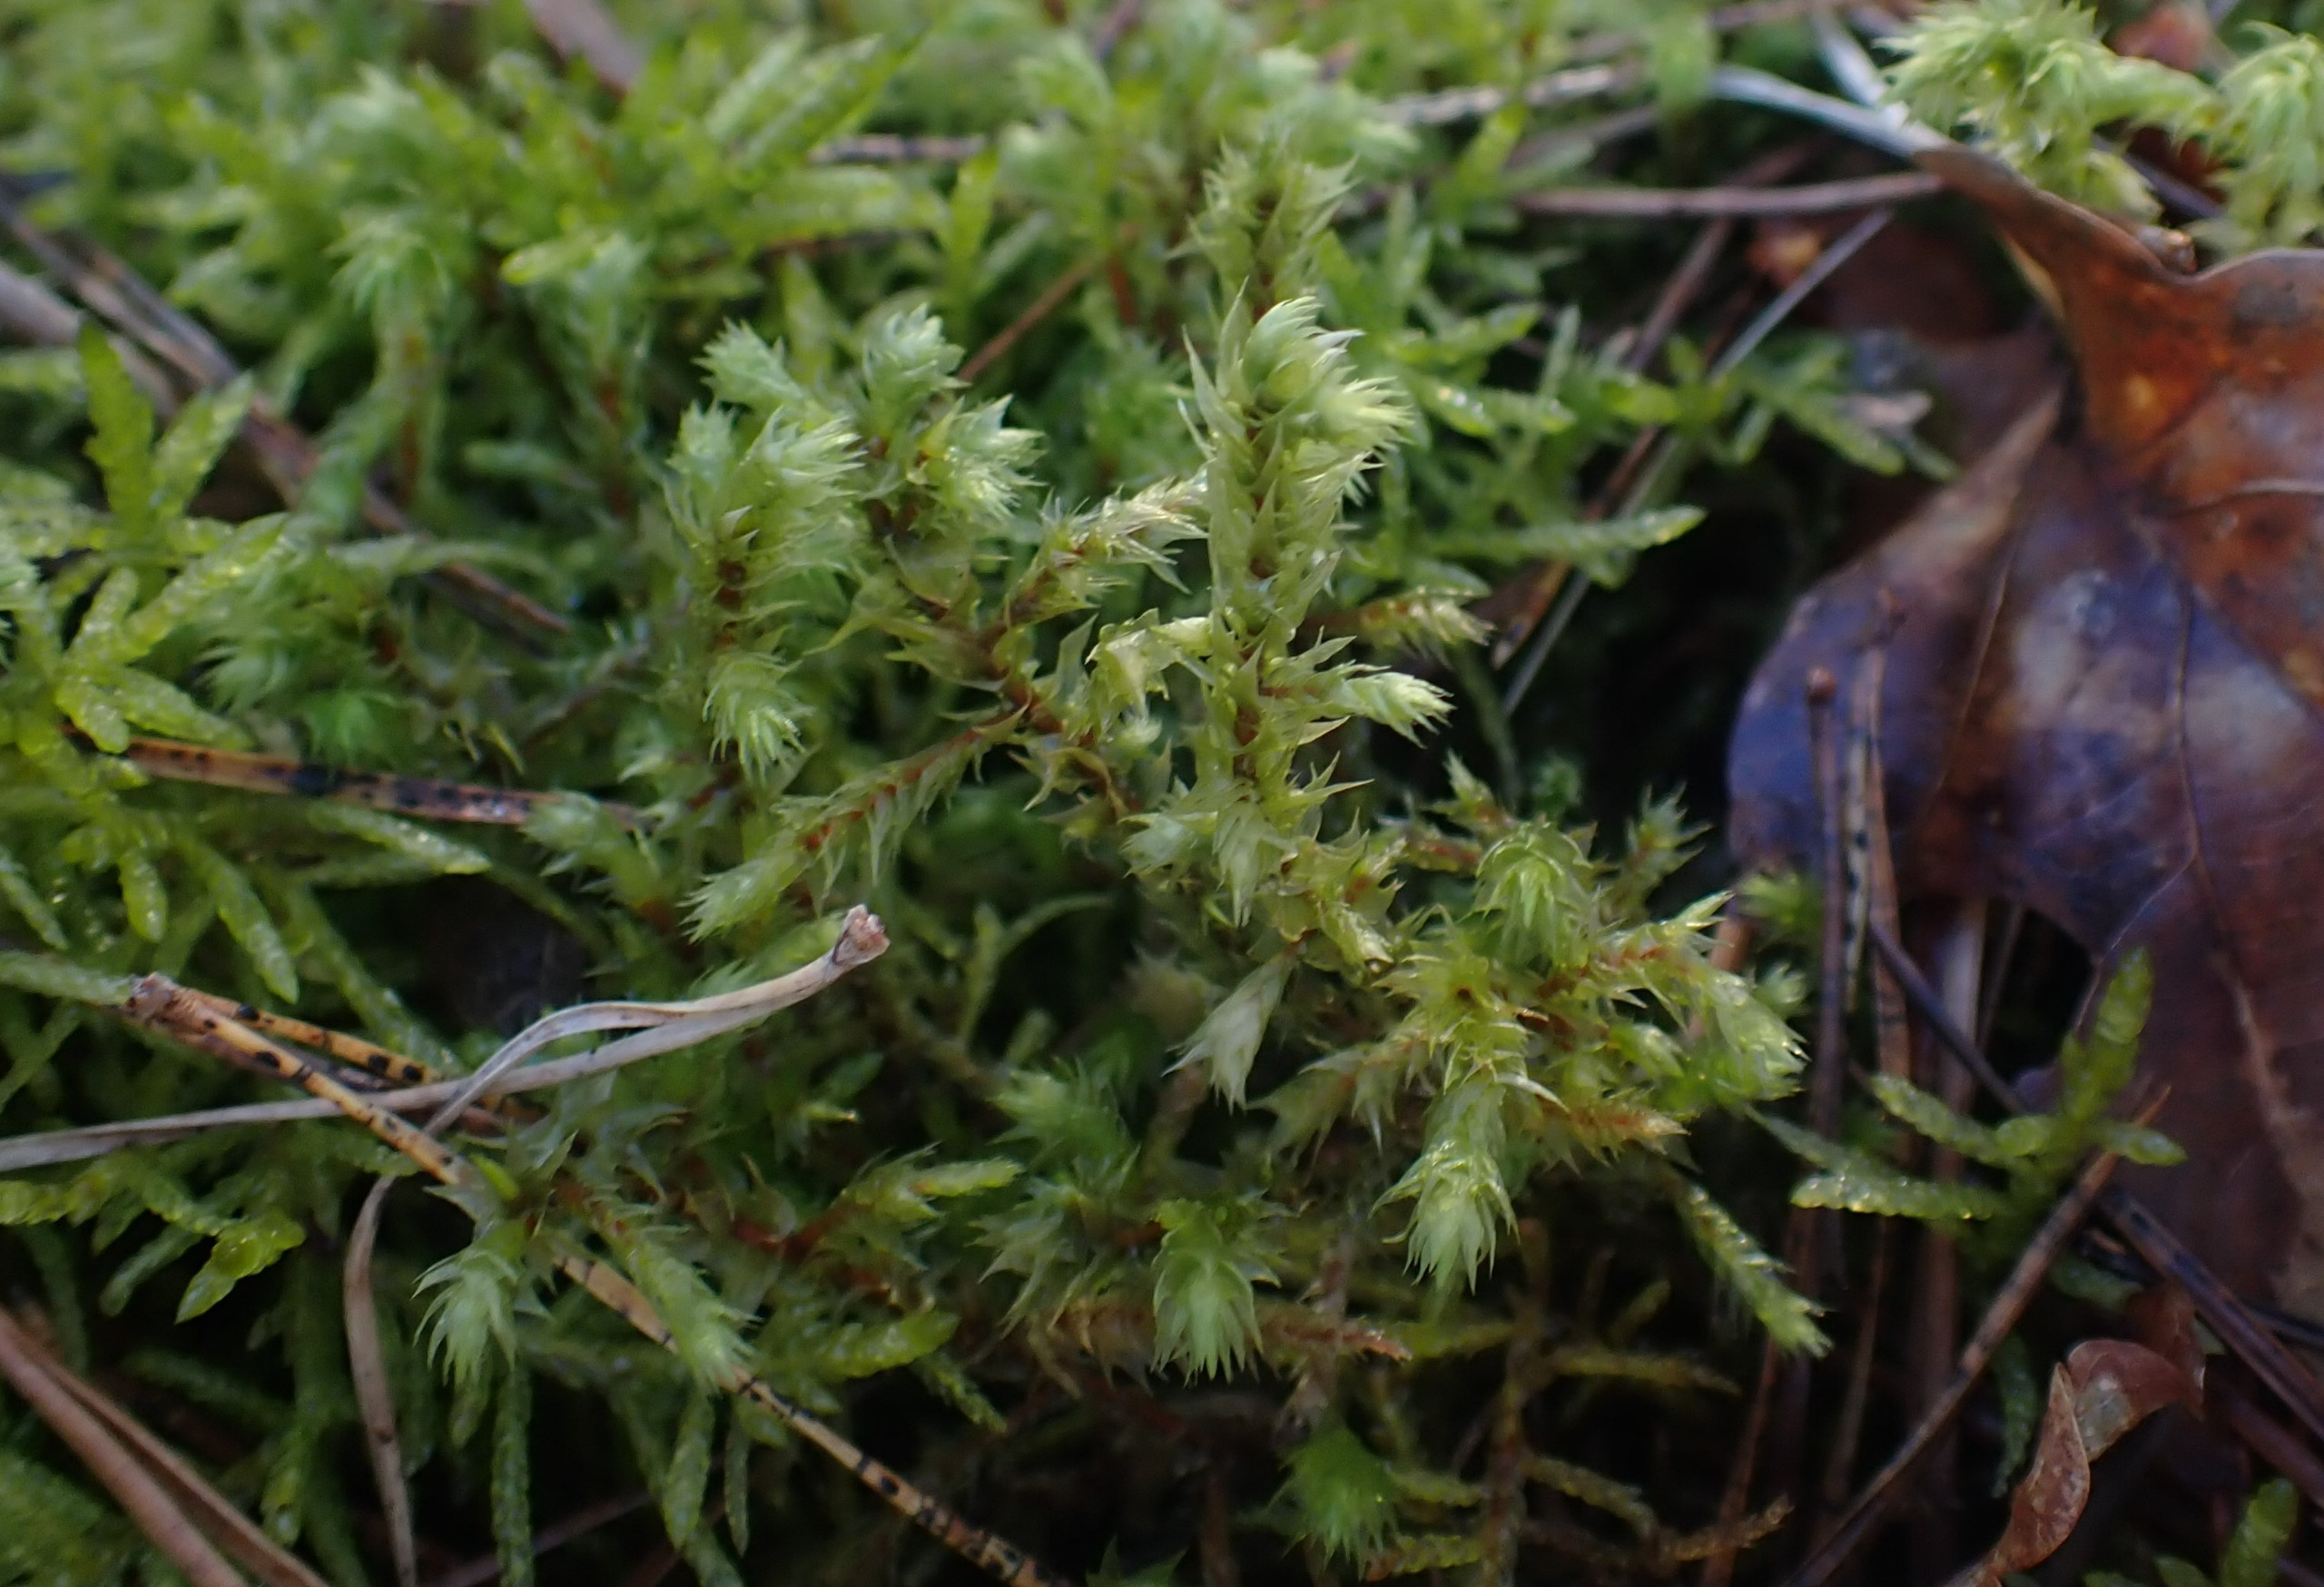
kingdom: Plantae
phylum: Bryophyta
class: Bryopsida
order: Hypnales
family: Hylocomiaceae
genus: Hylocomiadelphus
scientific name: Hylocomiadelphus triquetrus
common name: Stor kransemos
